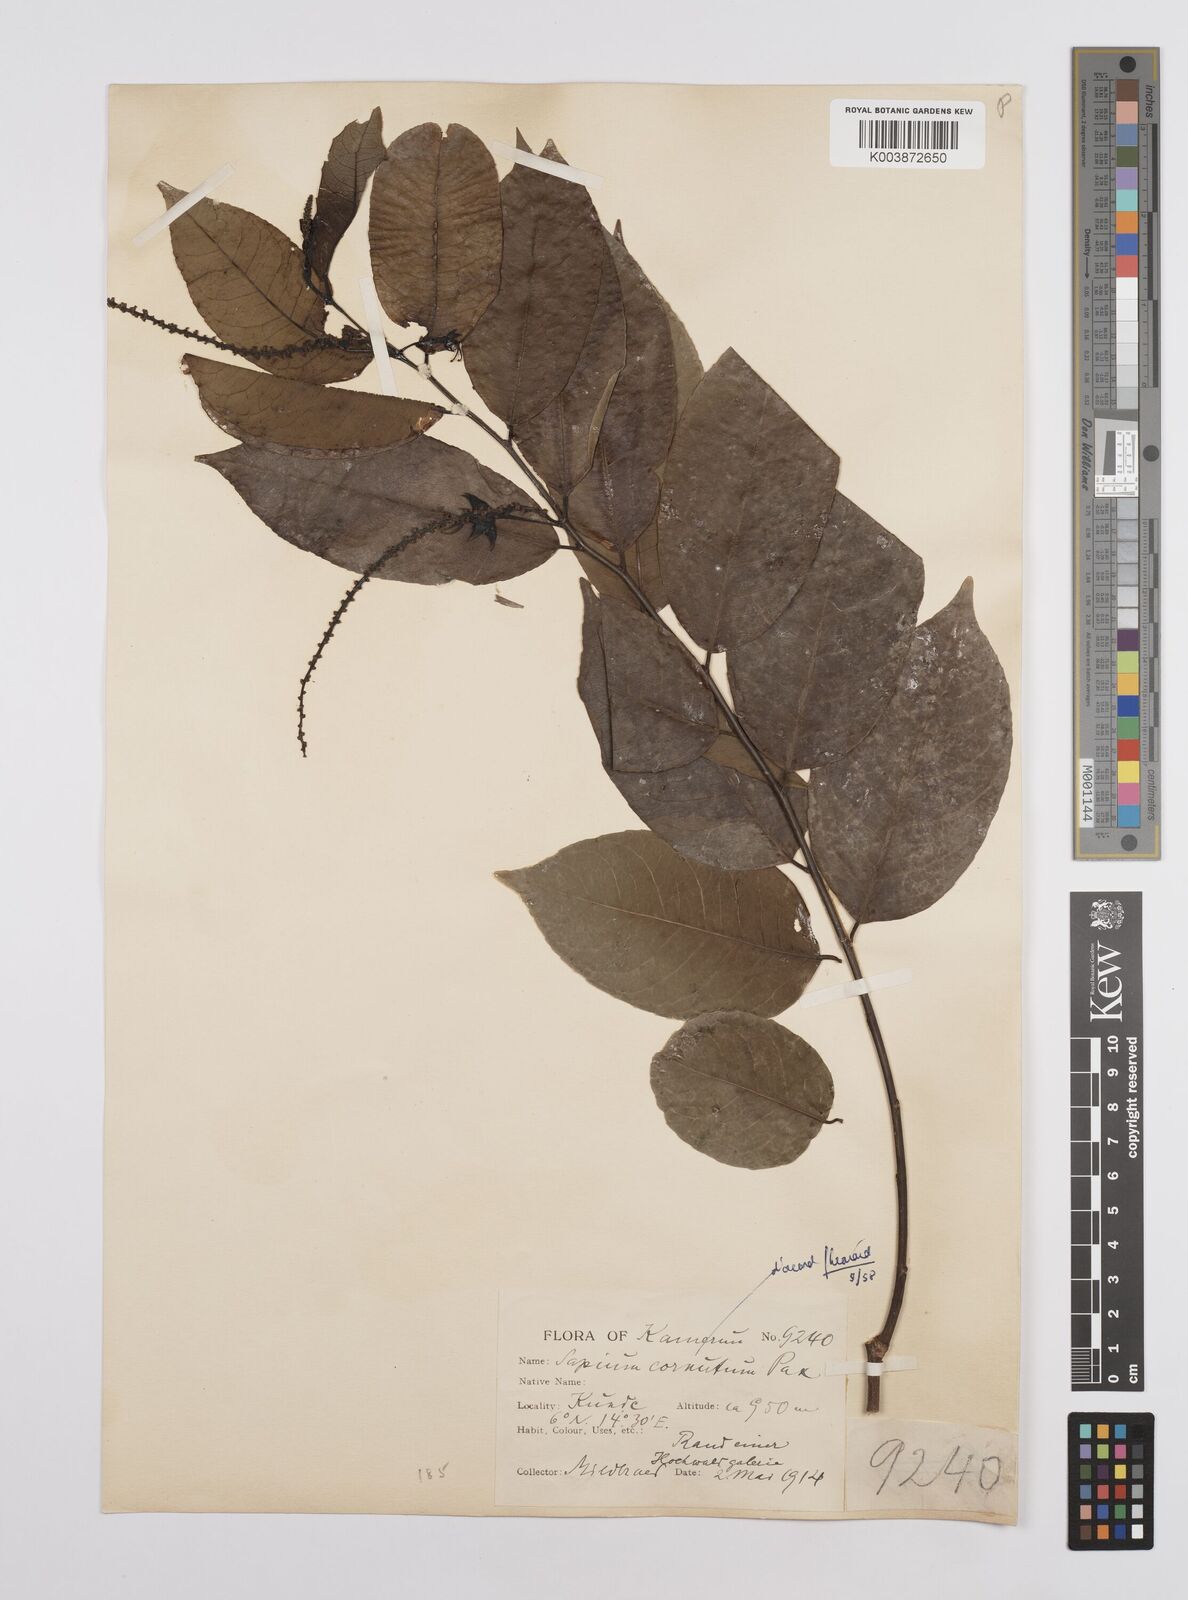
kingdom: Plantae
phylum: Tracheophyta
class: Magnoliopsida
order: Malpighiales
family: Euphorbiaceae
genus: Sclerocroton
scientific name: Sclerocroton cornutus
